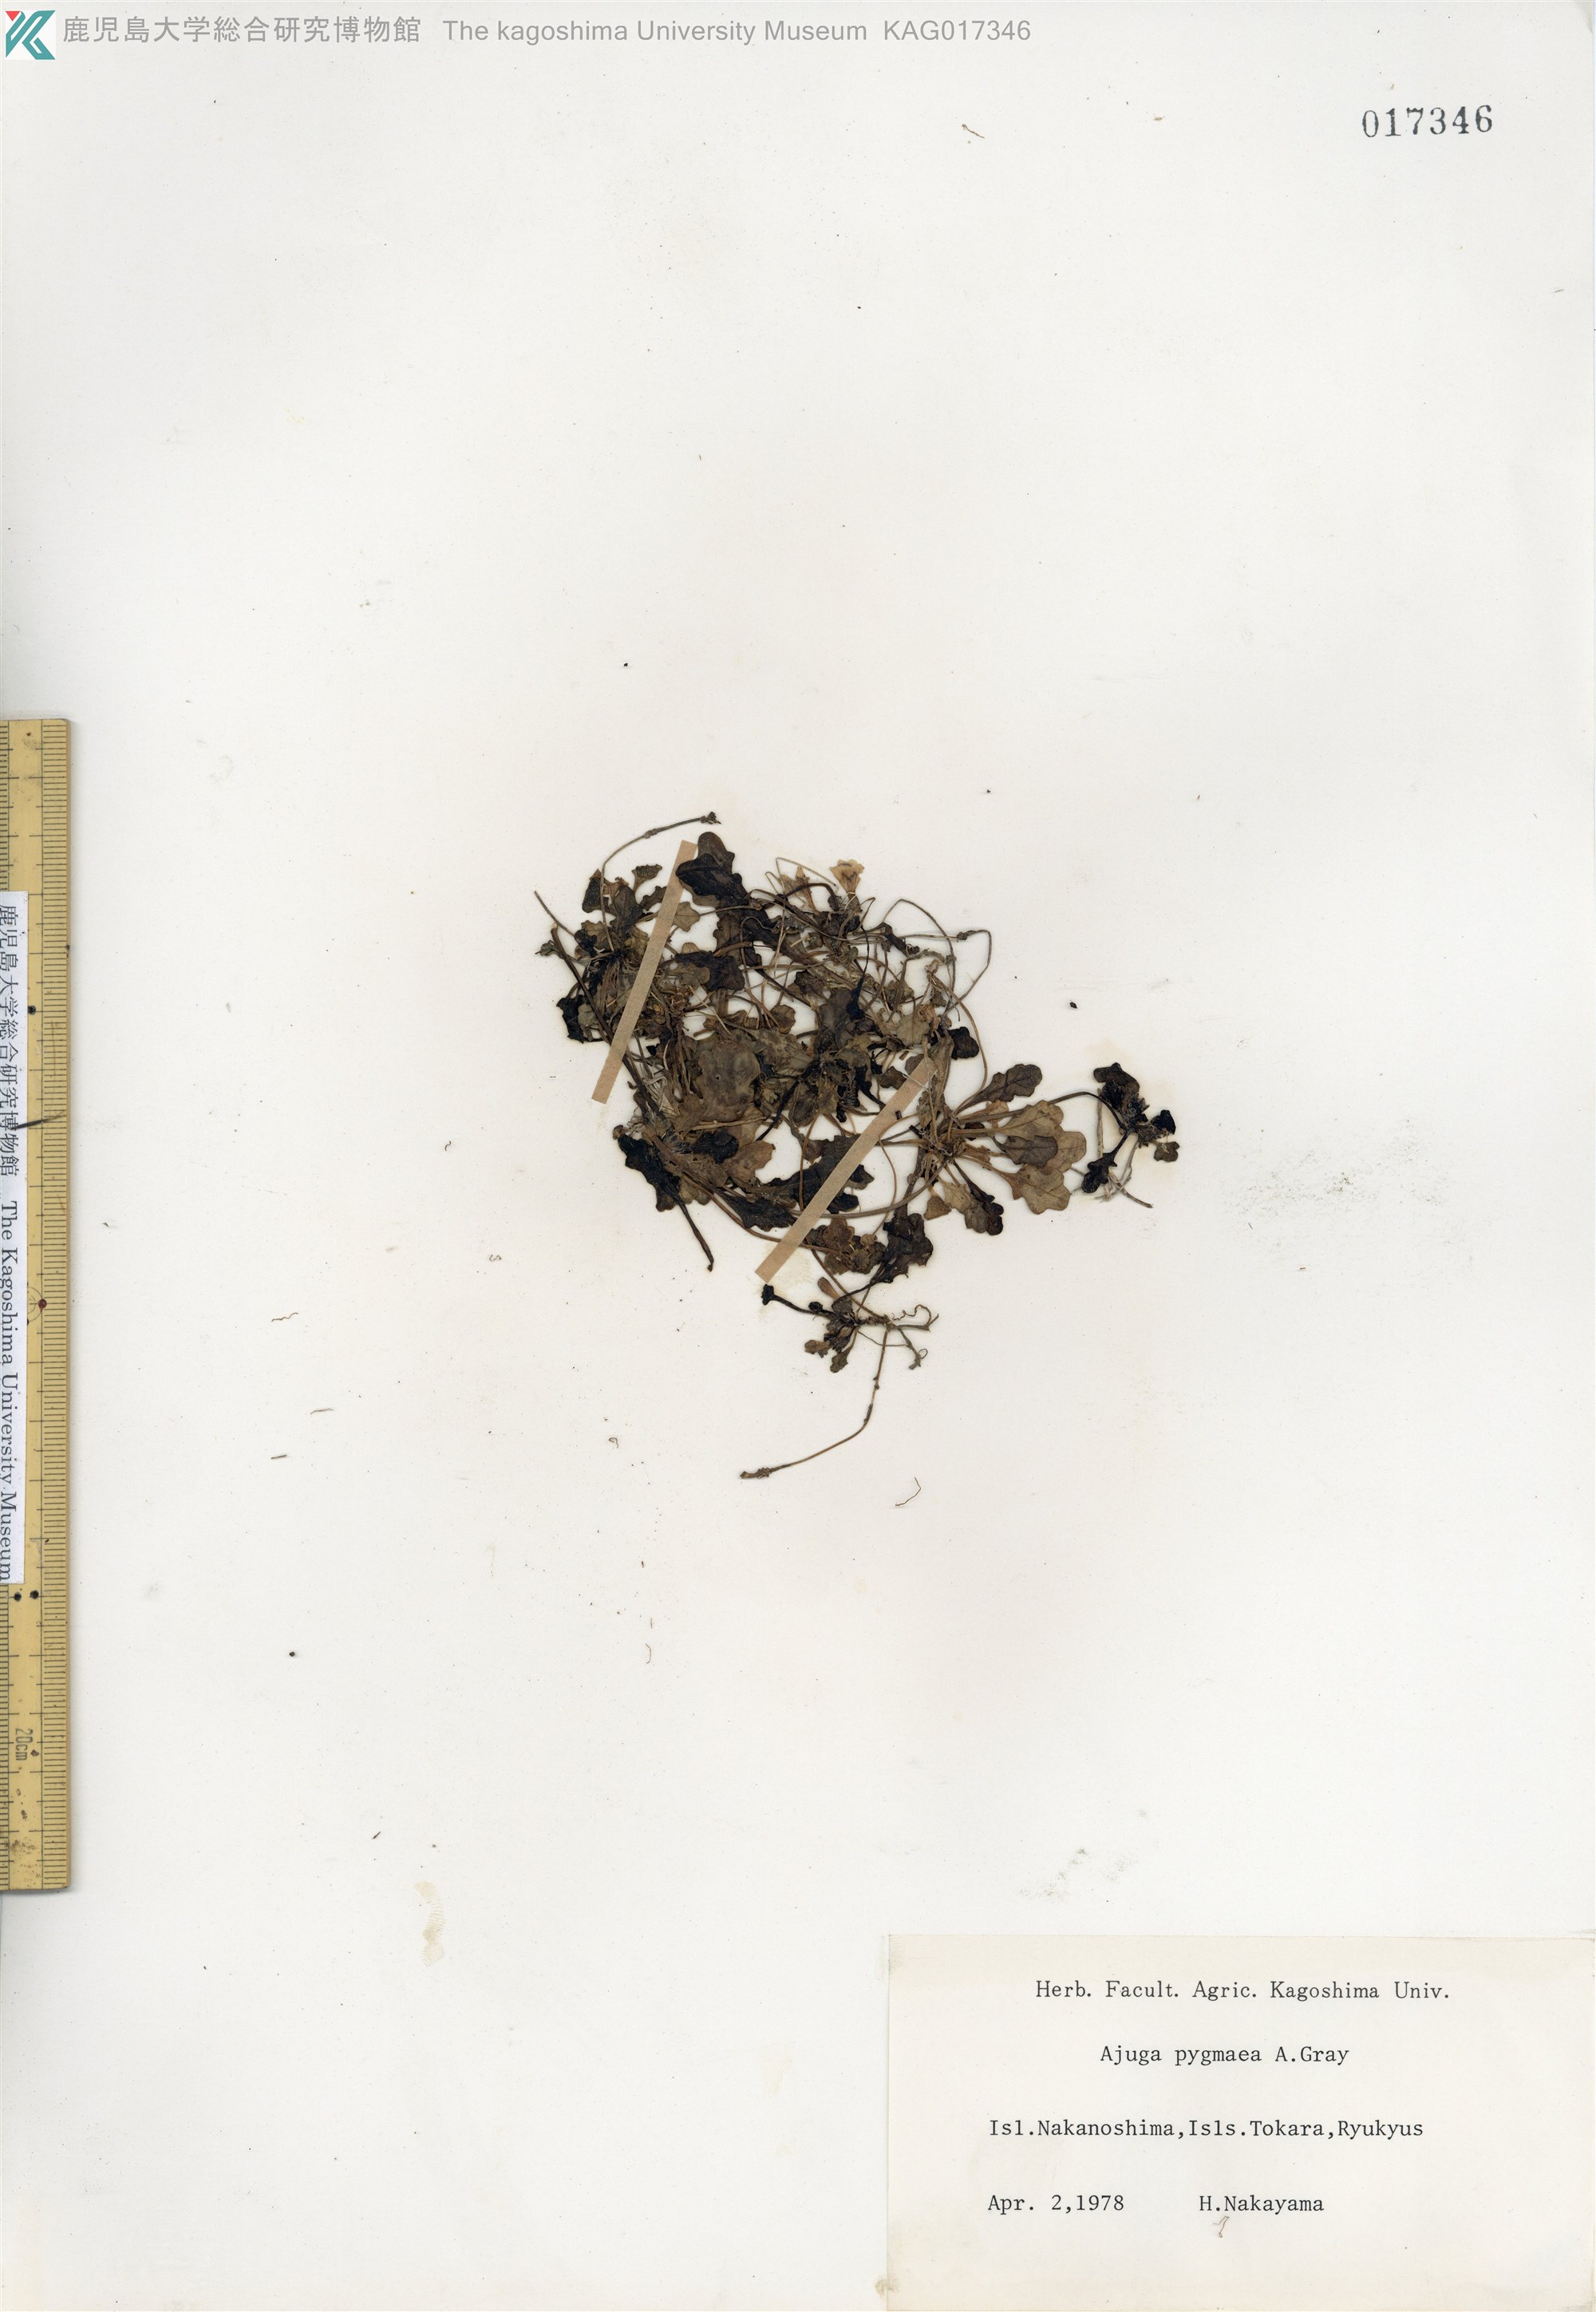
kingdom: Plantae
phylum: Tracheophyta
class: Magnoliopsida
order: Lamiales
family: Lamiaceae
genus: Ajuga
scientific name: Ajuga pygmaea
